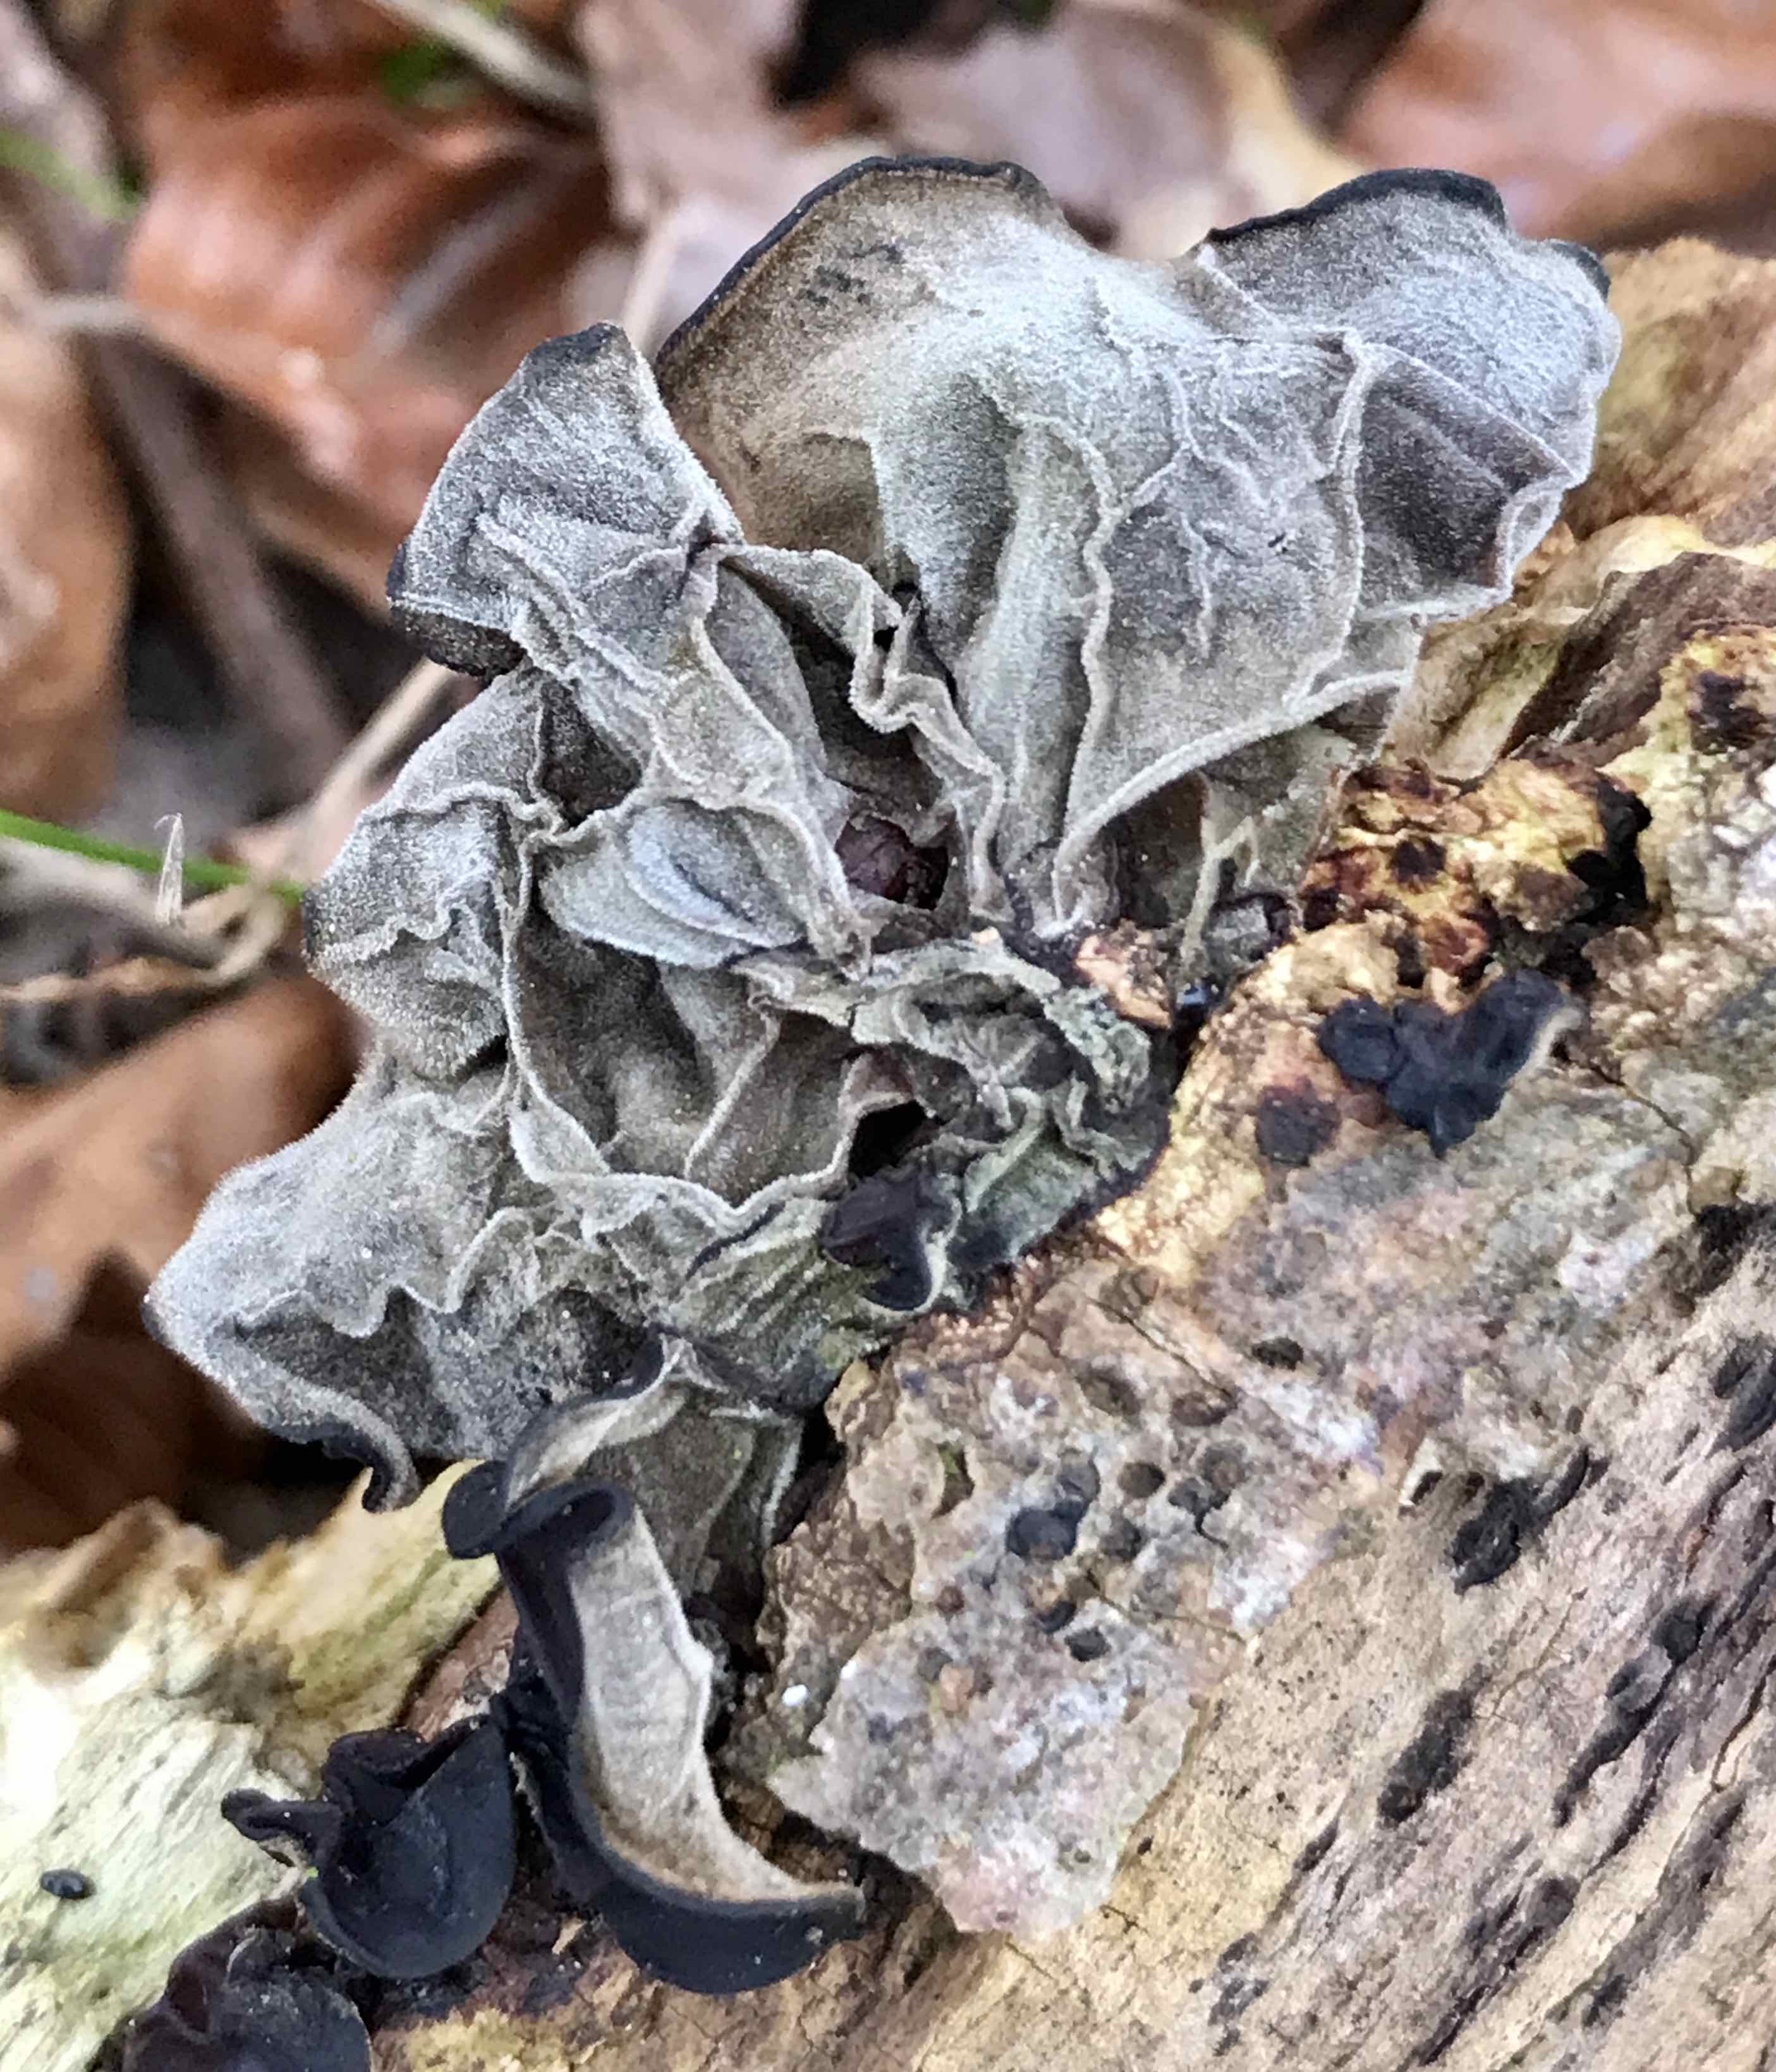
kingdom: Fungi
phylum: Basidiomycota
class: Agaricomycetes
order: Auriculariales
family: Auriculariaceae
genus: Auricularia
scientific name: Auricularia auricula-judae
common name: almindelig judasøre
